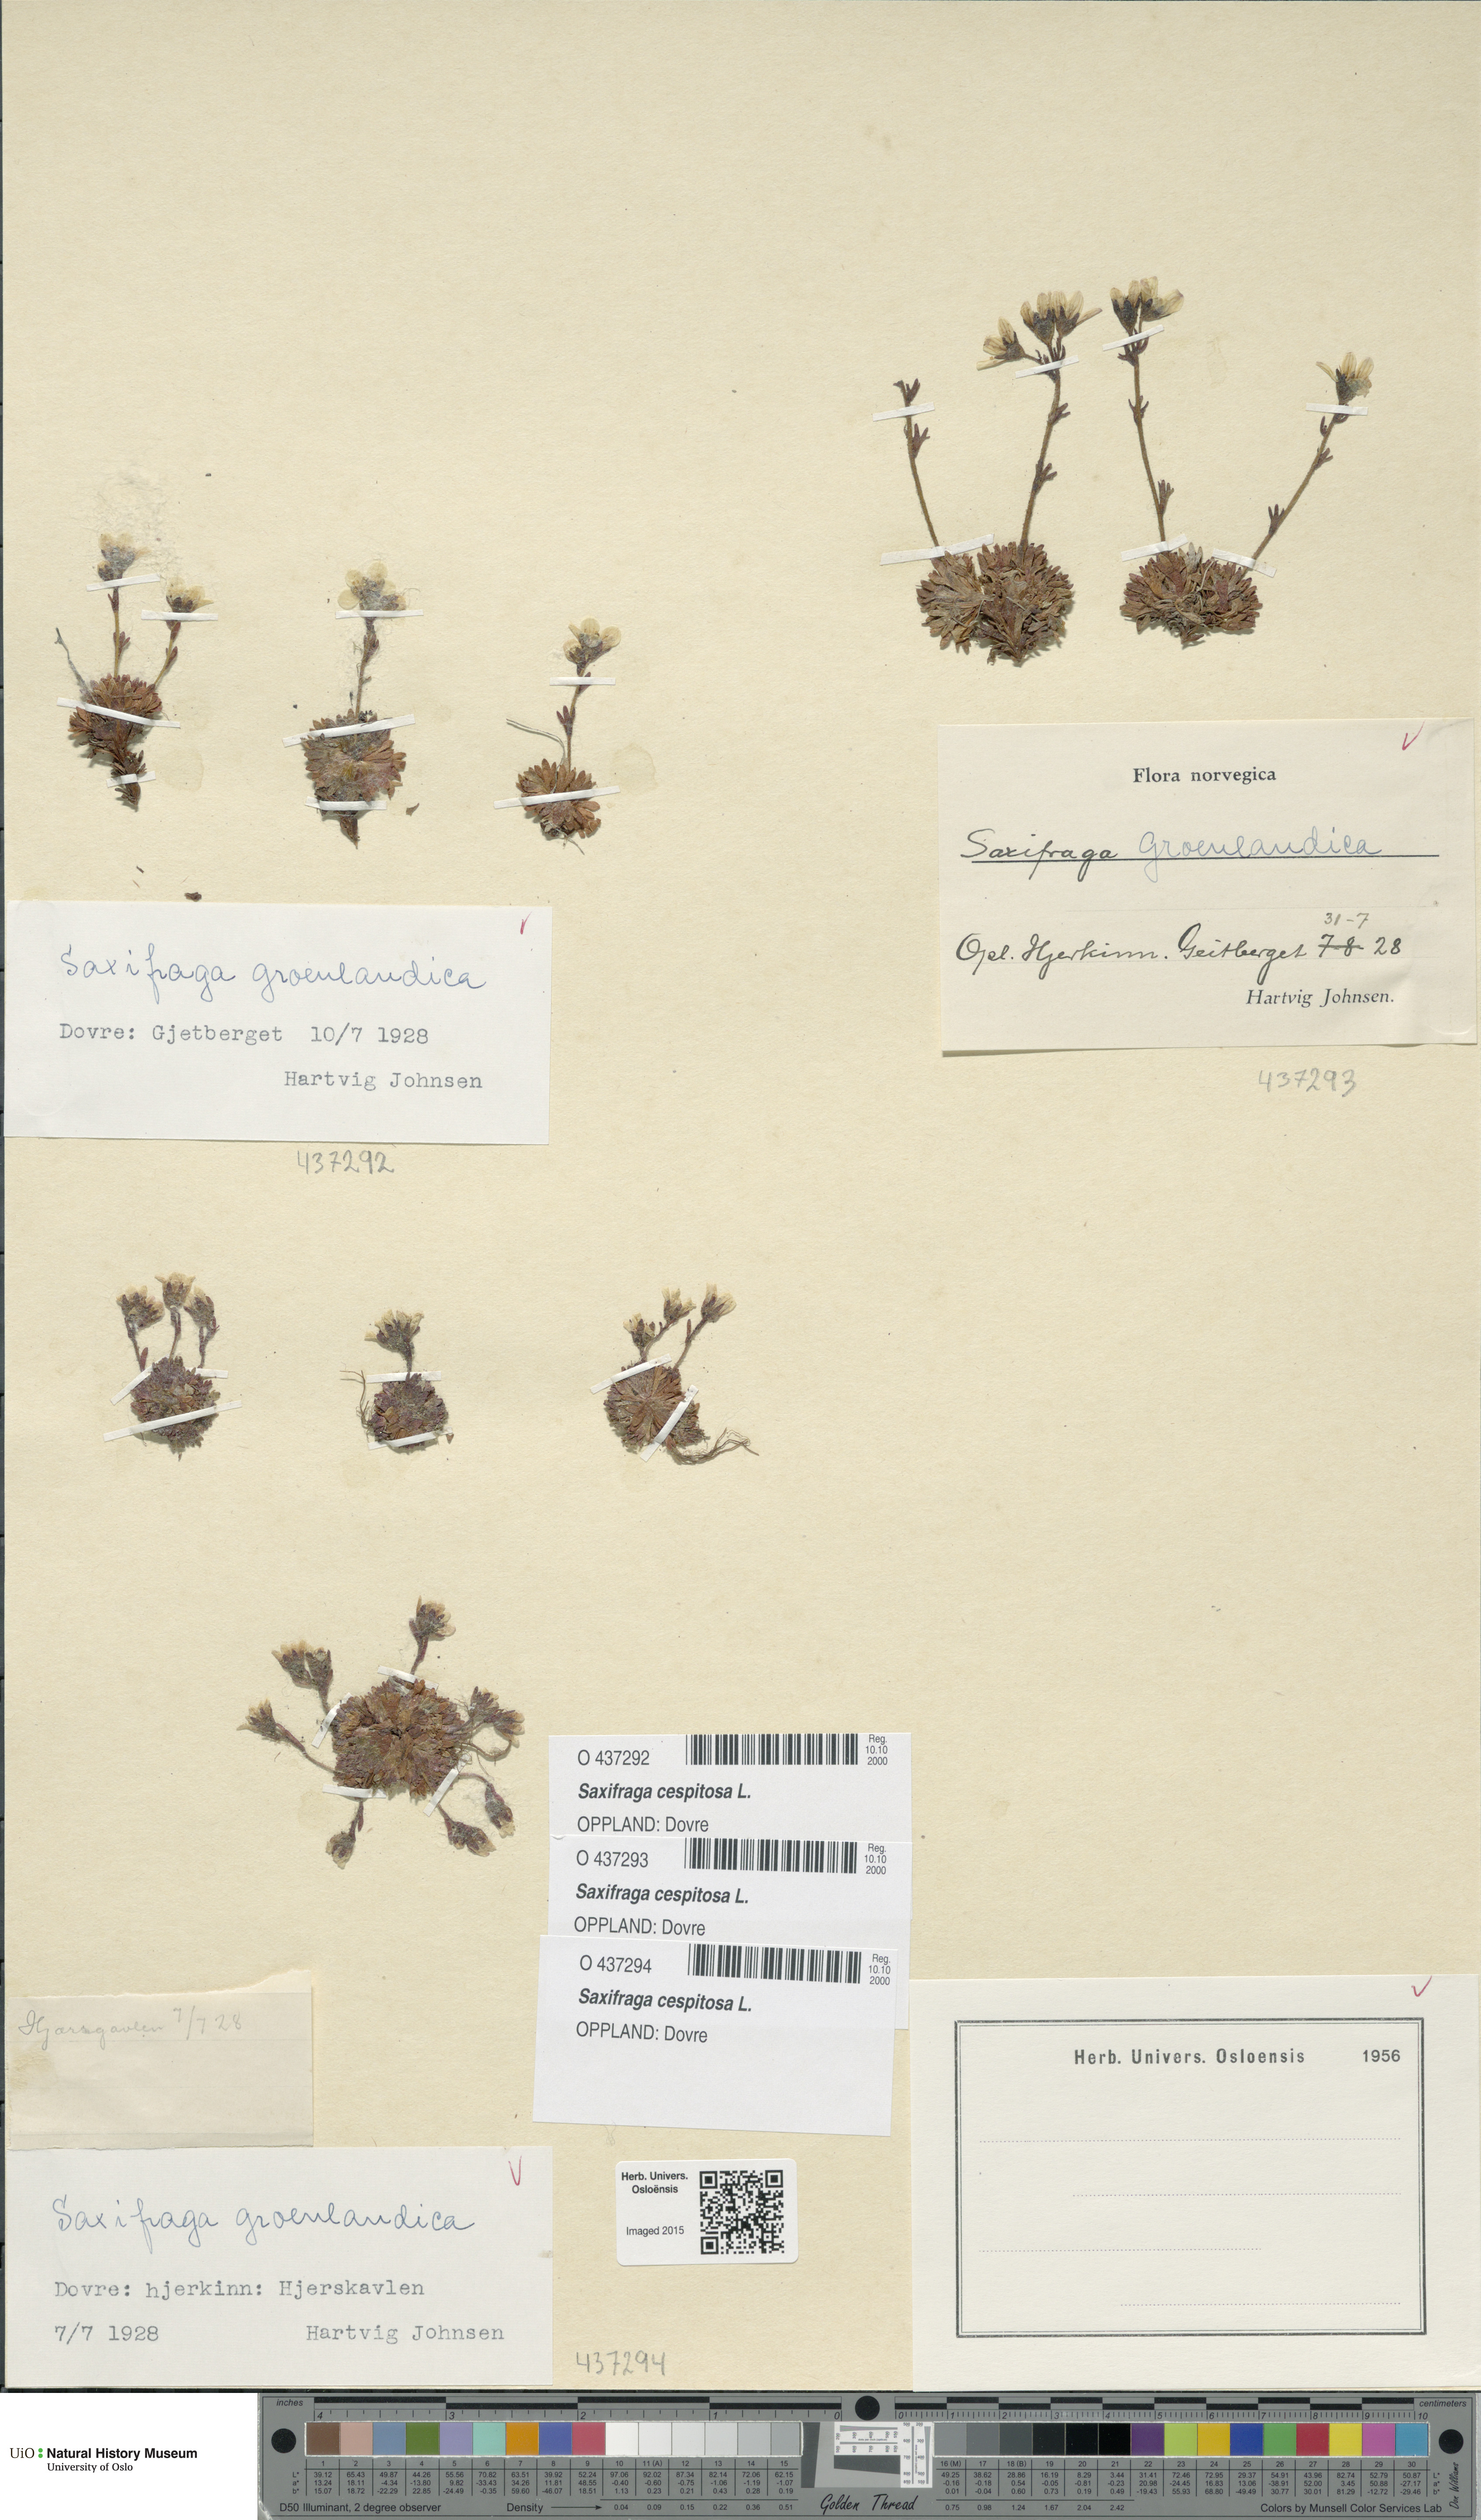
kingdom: Plantae
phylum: Tracheophyta
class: Magnoliopsida
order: Saxifragales
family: Saxifragaceae
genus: Saxifraga
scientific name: Saxifraga cespitosa
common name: Tufted saxifrage
